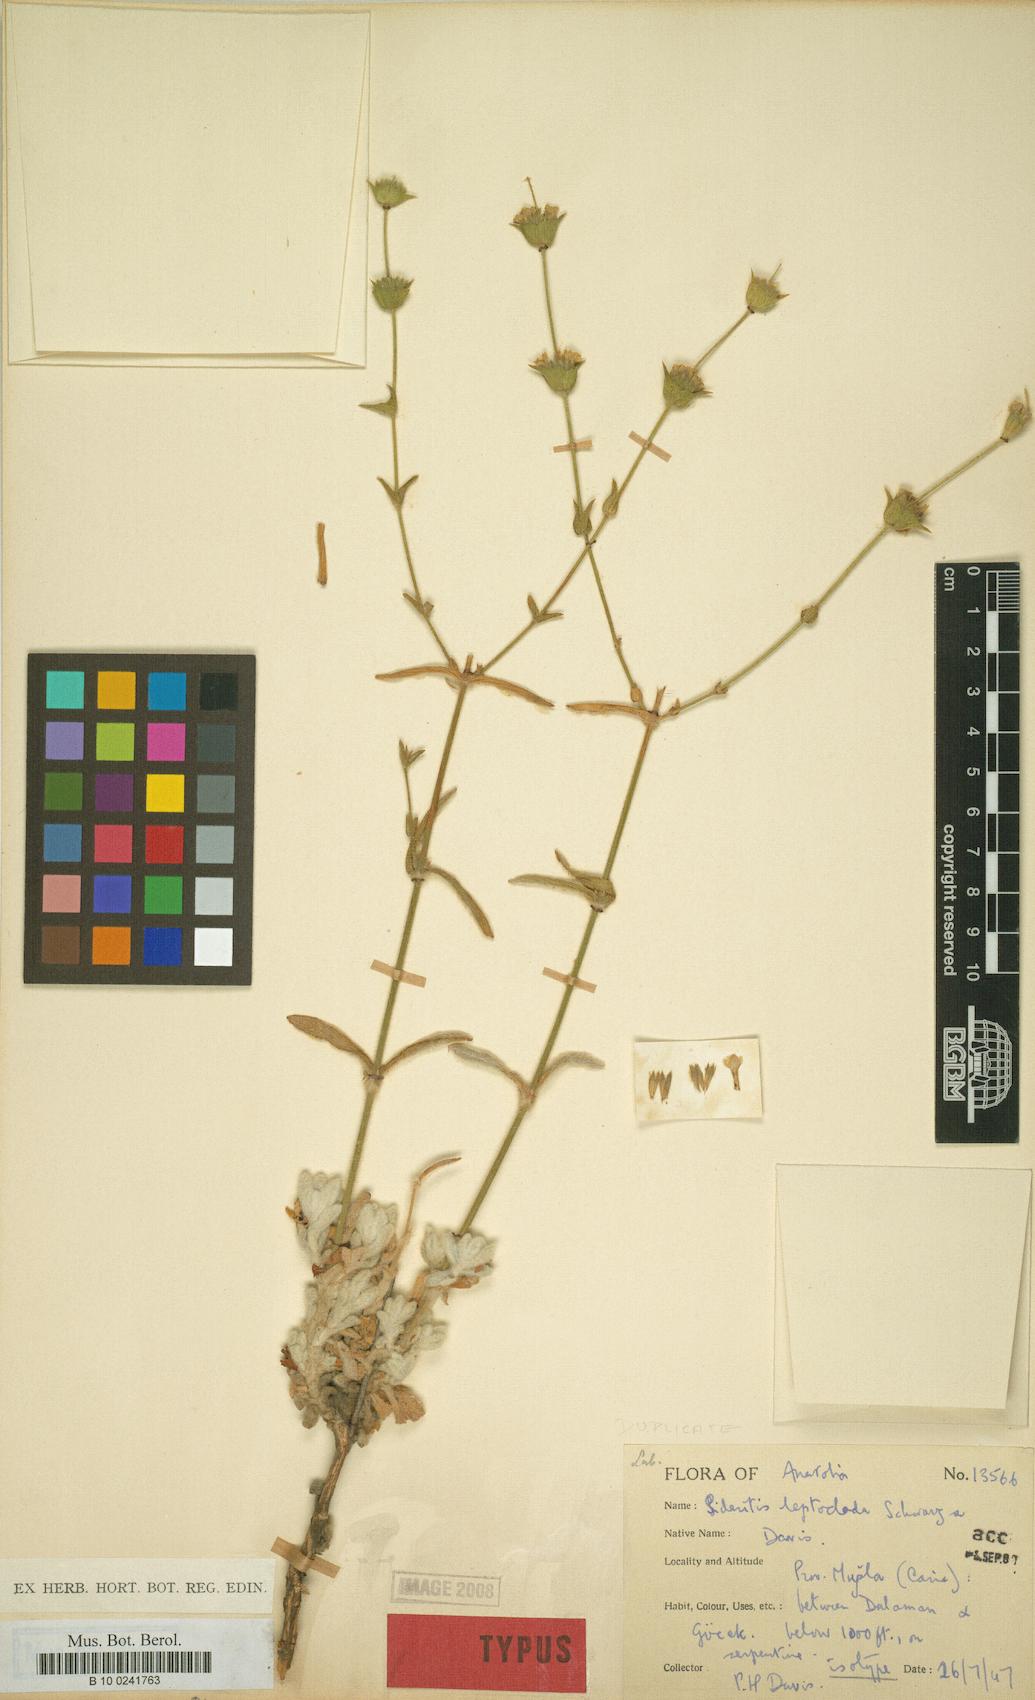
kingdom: Plantae
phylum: Tracheophyta
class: Magnoliopsida
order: Lamiales
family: Lamiaceae
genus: Sideritis
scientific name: Sideritis leptoclada
